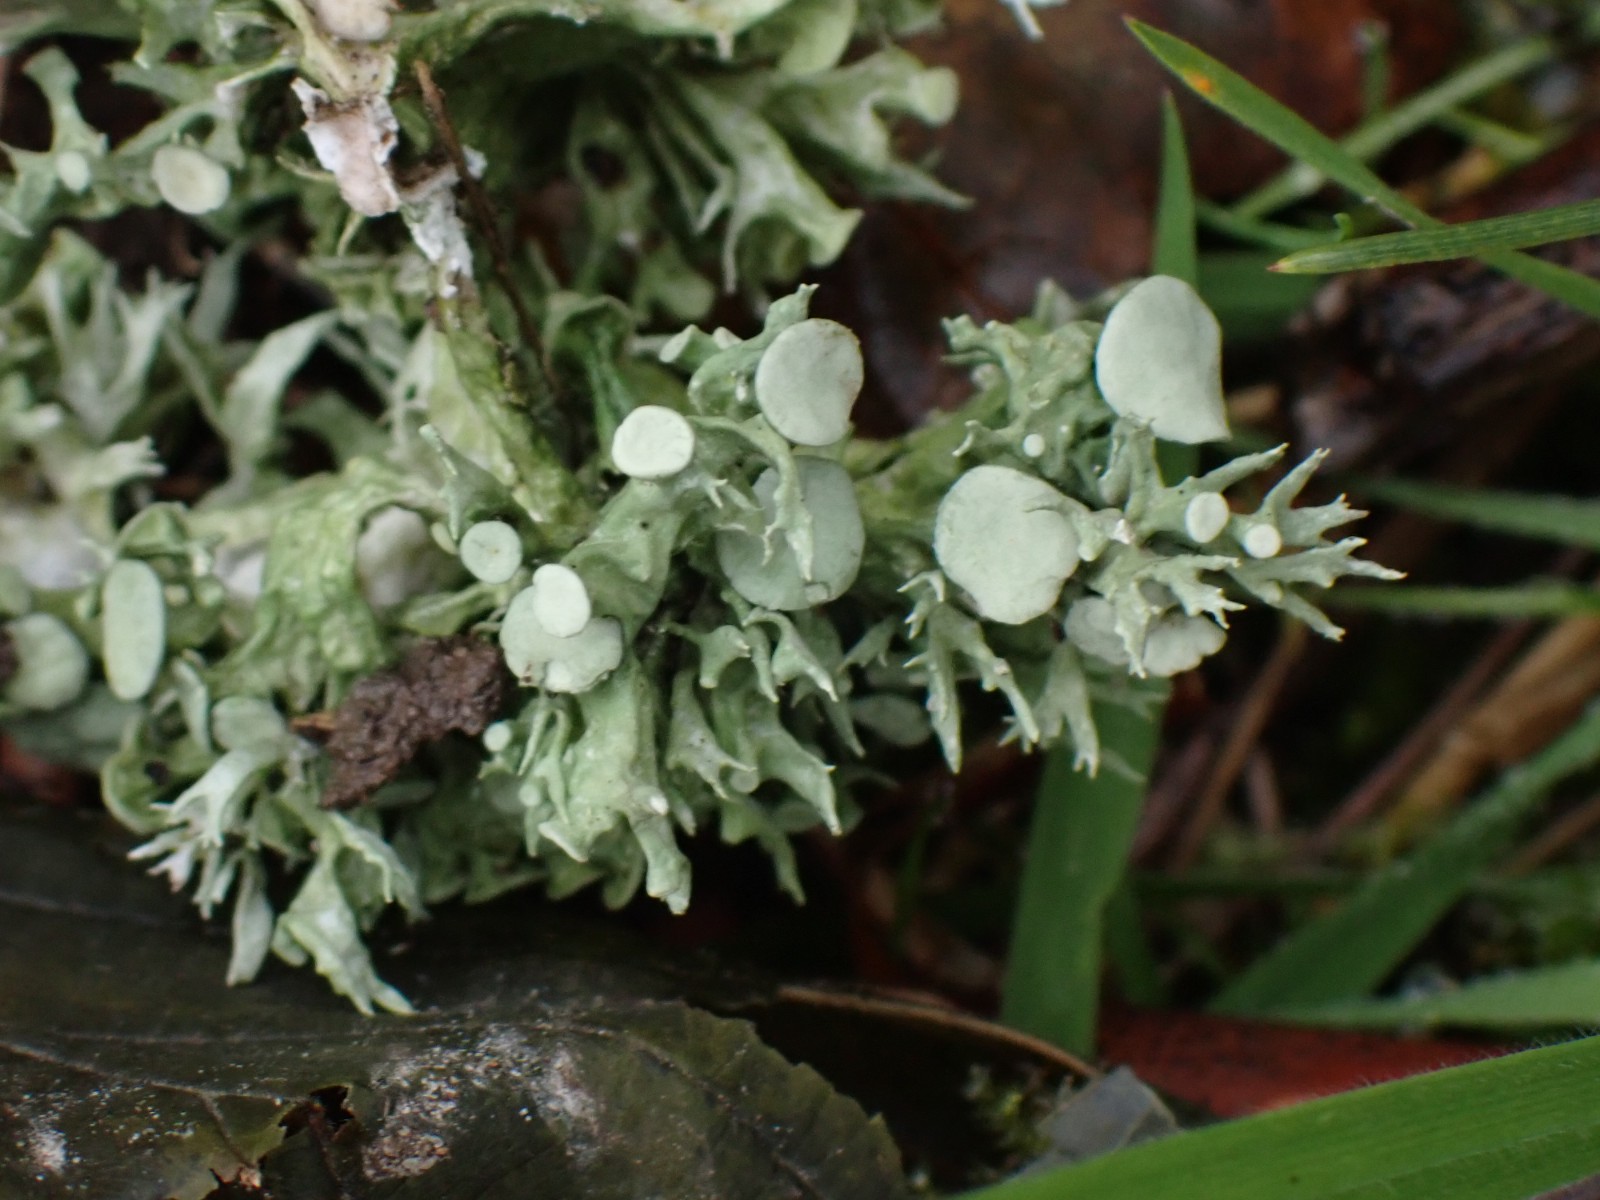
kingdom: Fungi
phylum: Ascomycota
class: Lecanoromycetes
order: Lecanorales
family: Ramalinaceae
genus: Ramalina
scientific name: Ramalina fastigiata
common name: tue-grenlav
